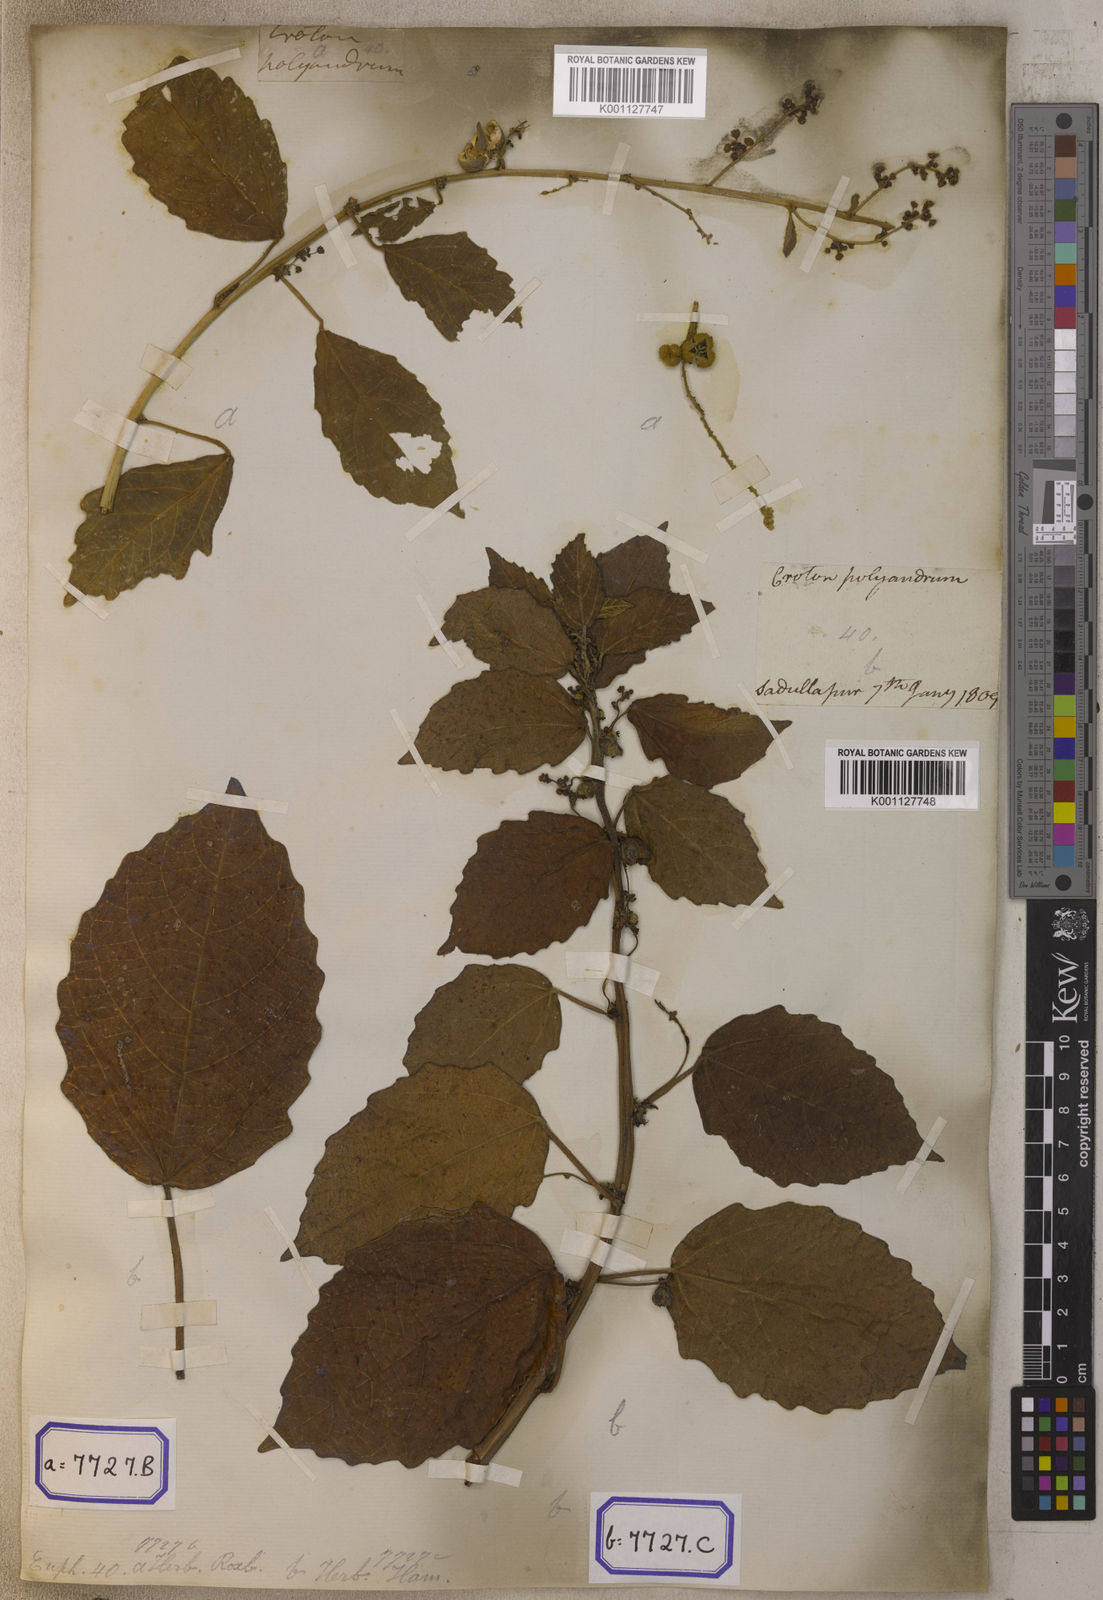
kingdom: Plantae
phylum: Tracheophyta
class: Magnoliopsida
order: Malpighiales
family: Euphorbiaceae
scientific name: Euphorbiaceae
